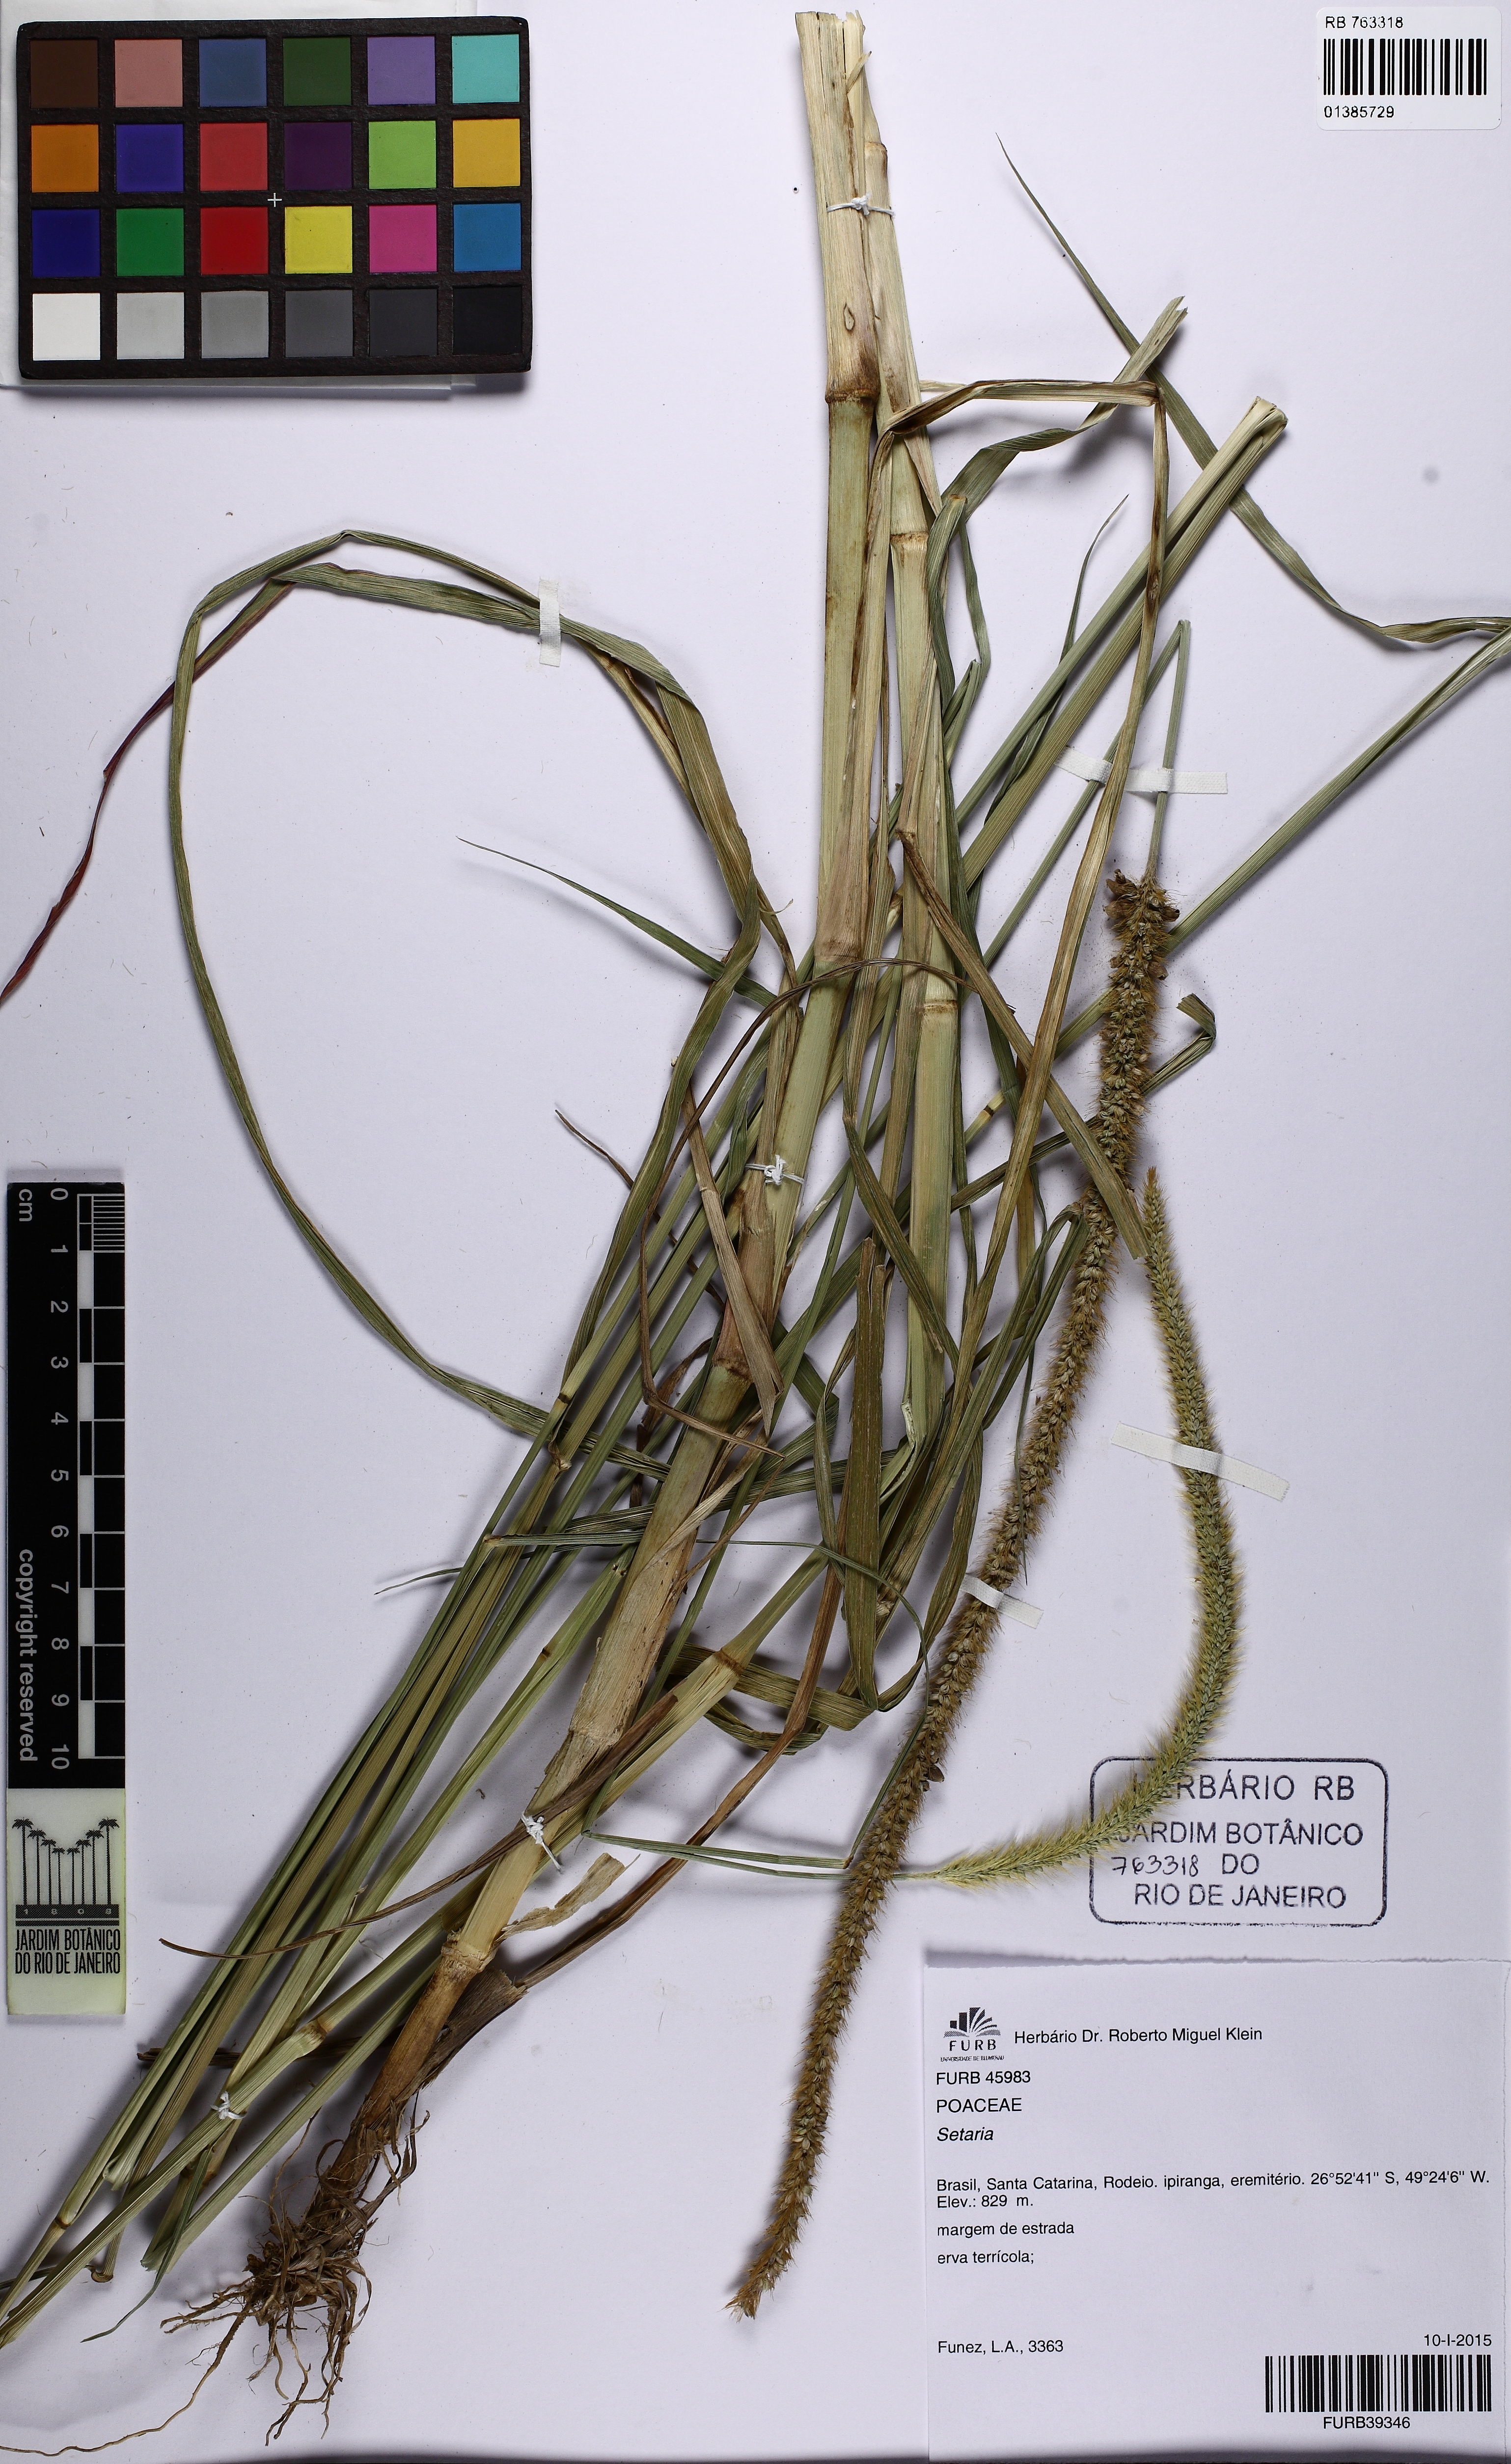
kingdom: Plantae
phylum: Tracheophyta
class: Liliopsida
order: Poales
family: Poaceae
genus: Setaria
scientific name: Setaria
